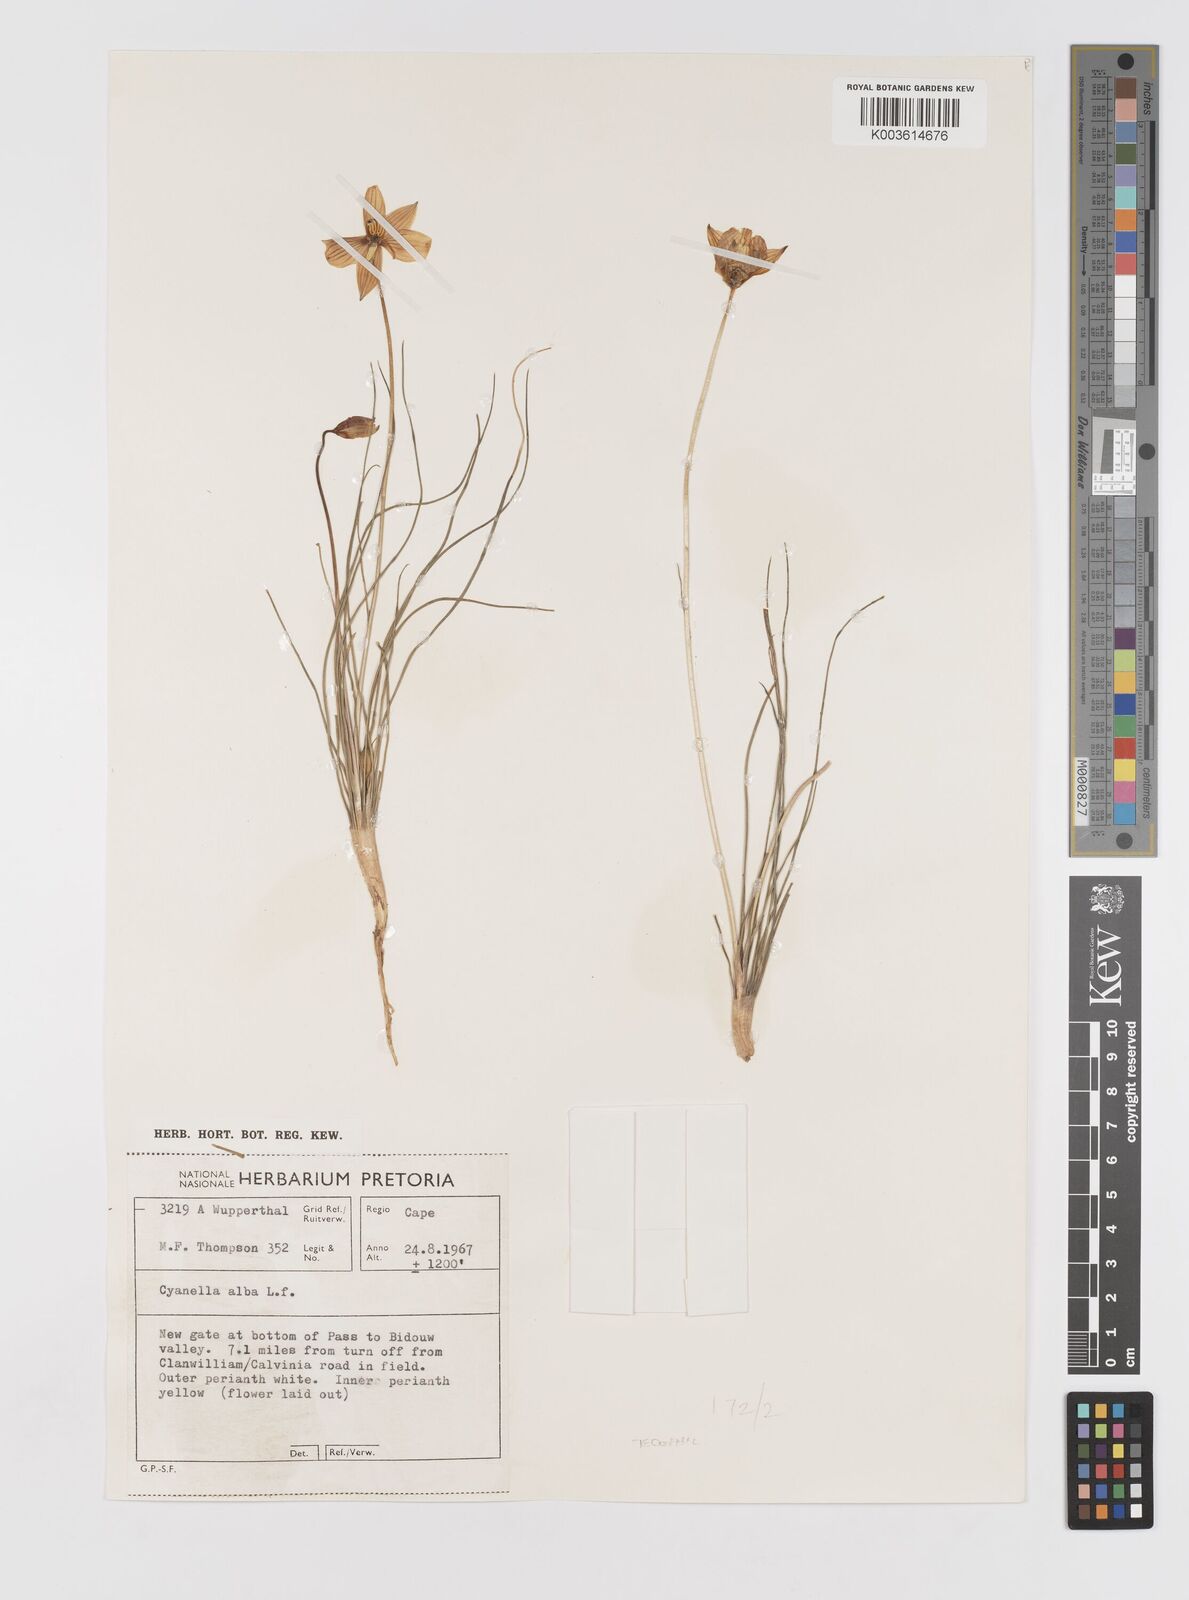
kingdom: Plantae
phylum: Tracheophyta
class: Liliopsida
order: Asparagales
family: Tecophilaeaceae
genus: Cyanella
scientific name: Cyanella alba
